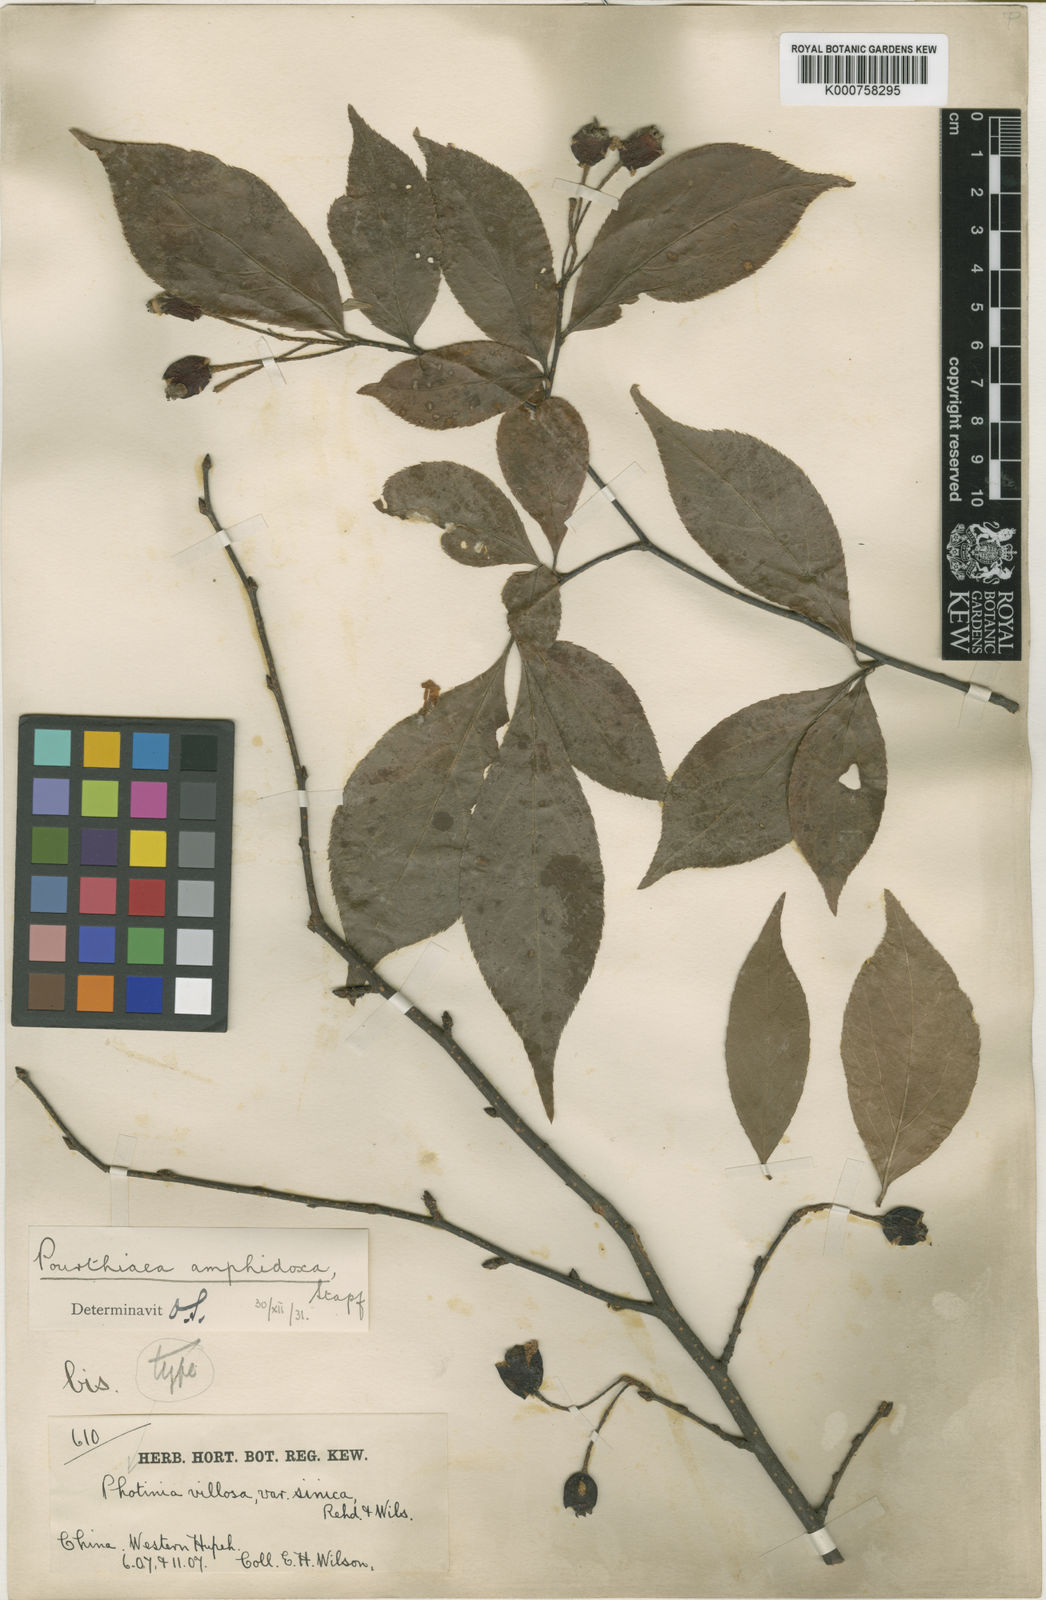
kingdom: Plantae
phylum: Tracheophyta
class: Magnoliopsida
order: Rosales
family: Rosaceae
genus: Pourthiaea
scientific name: Pourthiaea villosa
